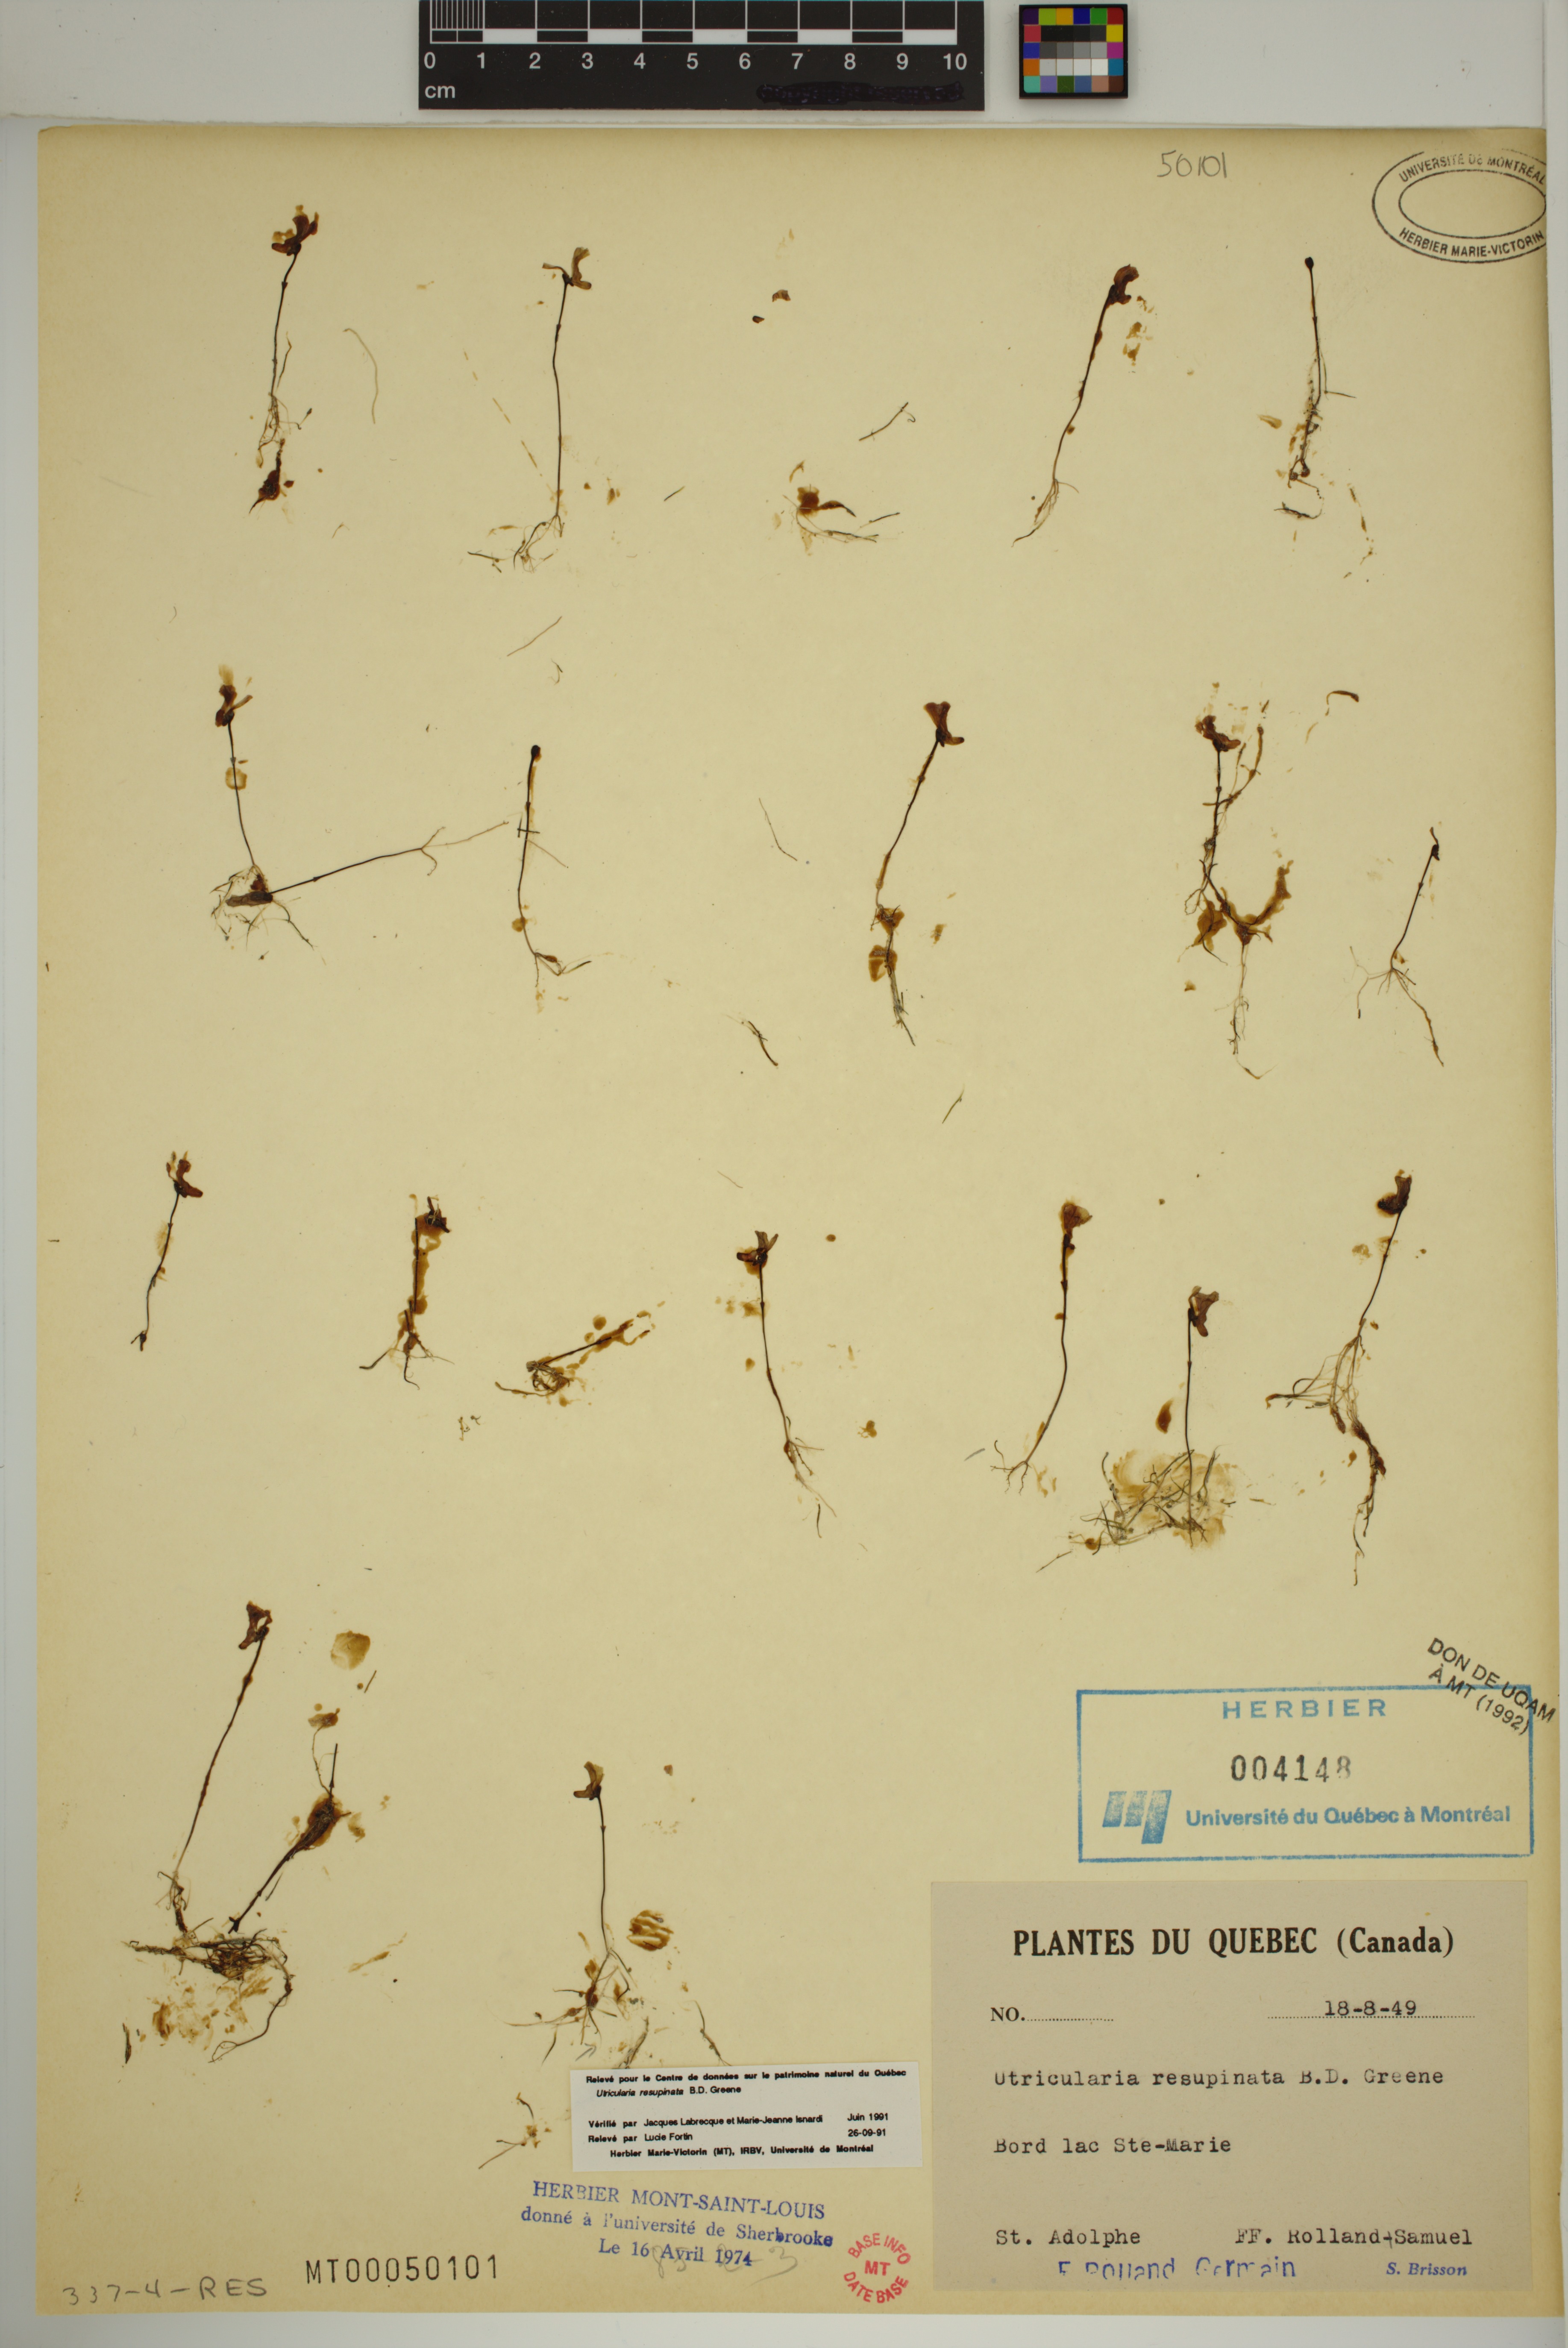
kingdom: Plantae
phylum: Tracheophyta
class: Magnoliopsida
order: Lamiales
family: Lentibulariaceae
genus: Utricularia
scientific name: Utricularia resupinata
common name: Northeastern bladderwort
